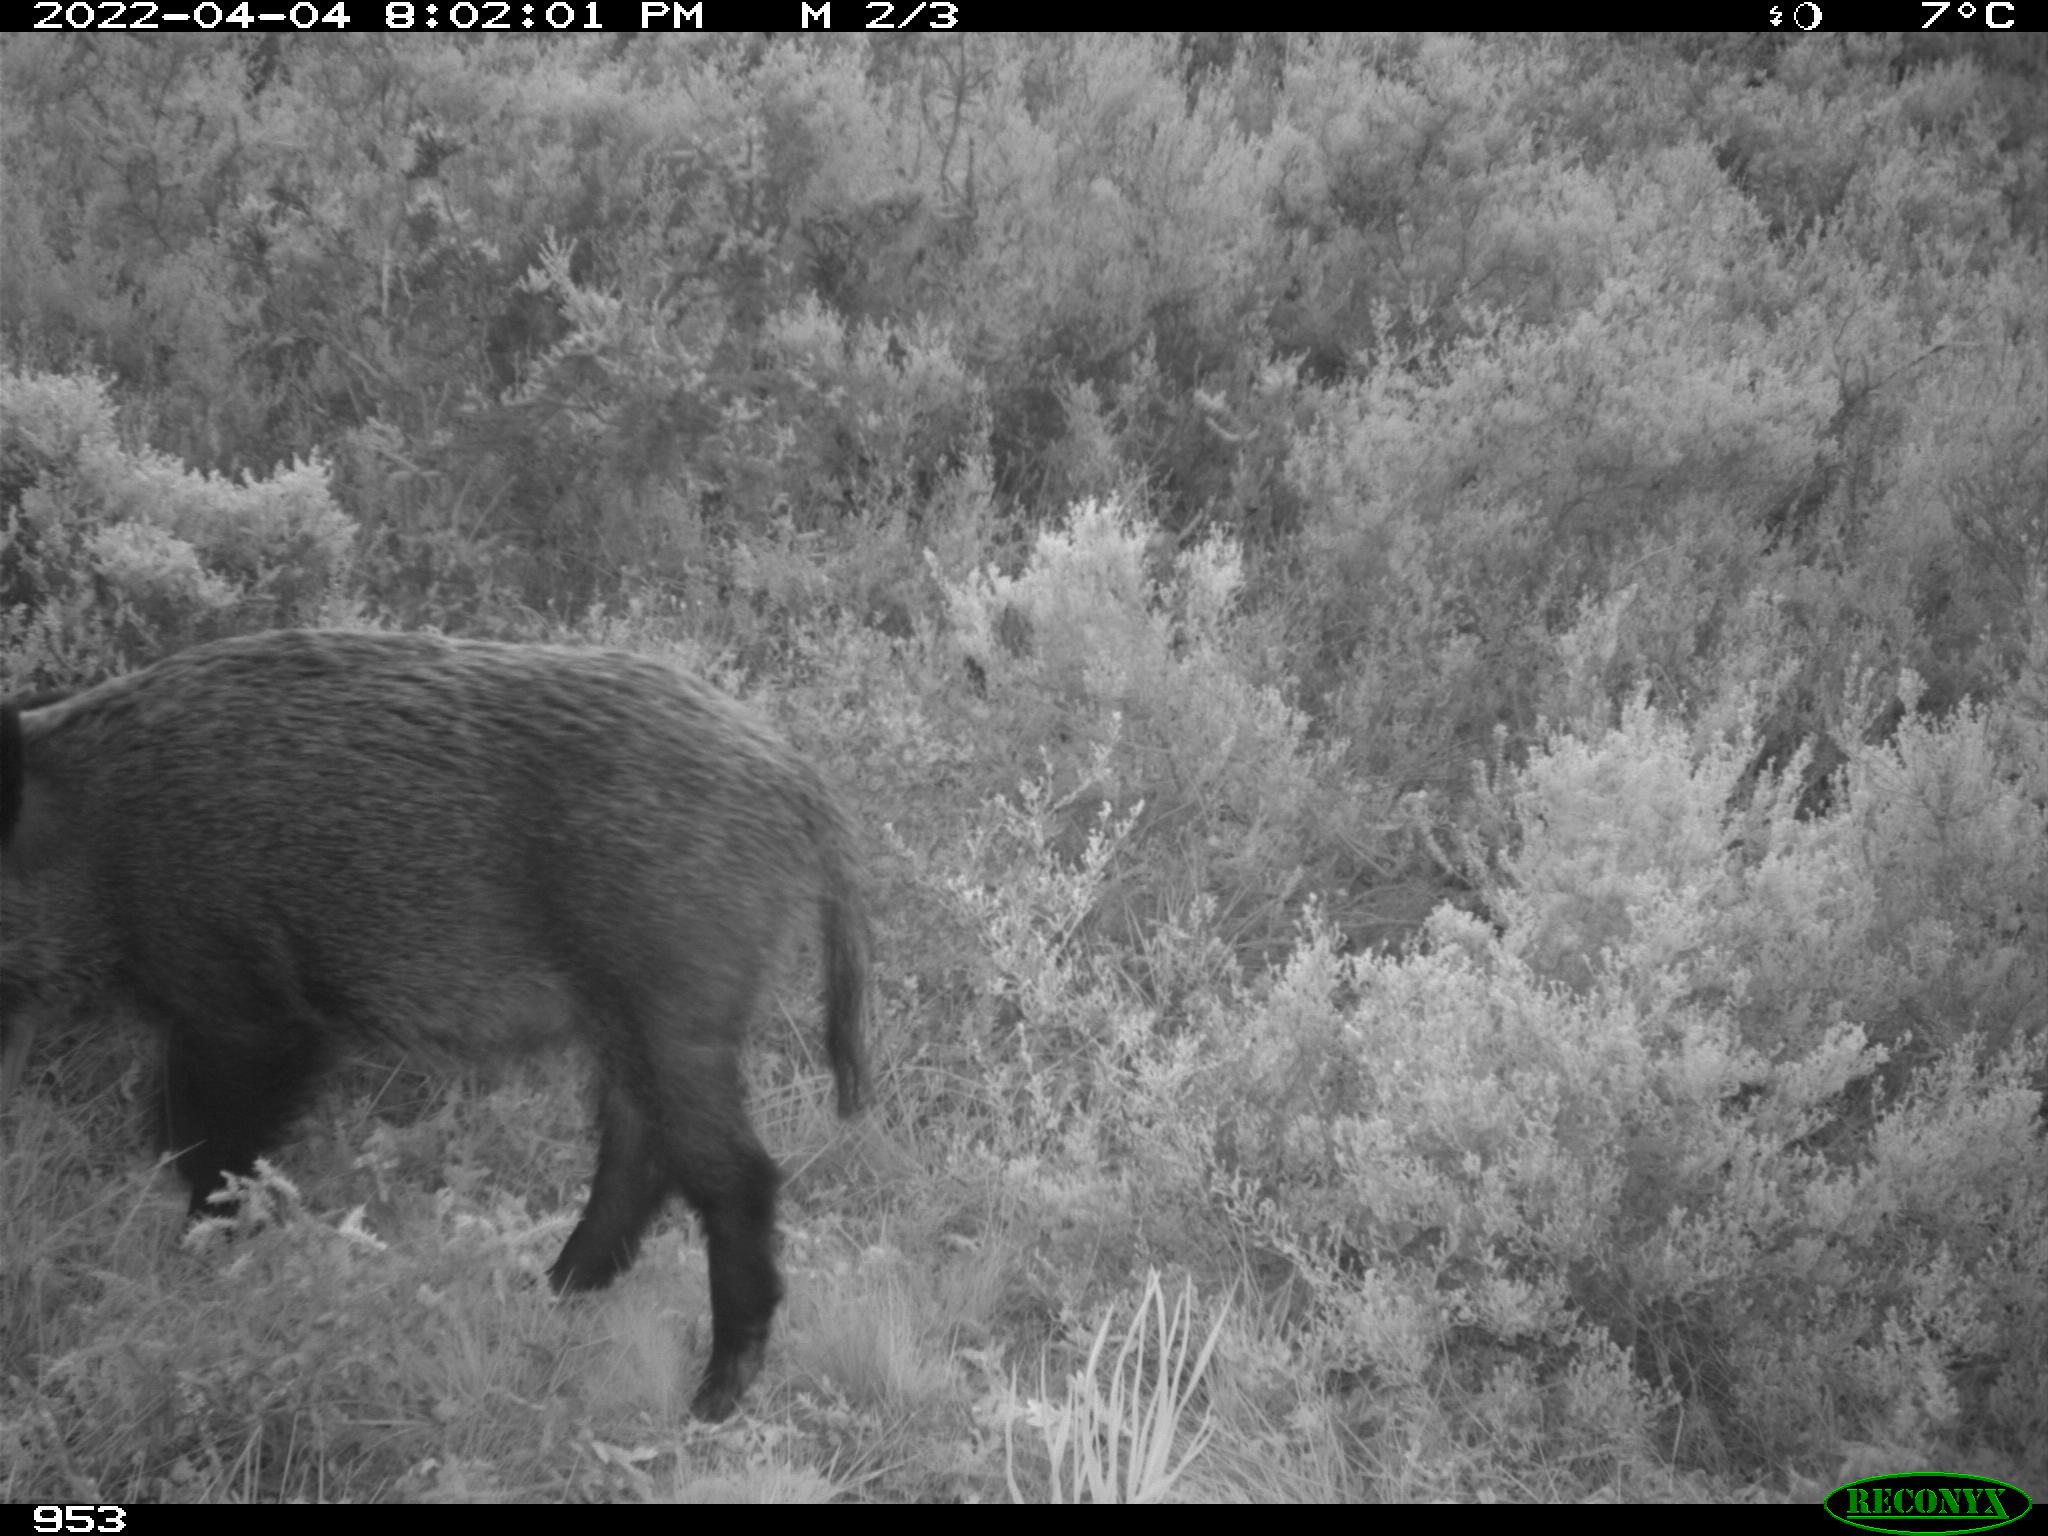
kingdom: Animalia
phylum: Chordata
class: Mammalia
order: Artiodactyla
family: Suidae
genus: Sus
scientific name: Sus scrofa
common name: Wild boar
